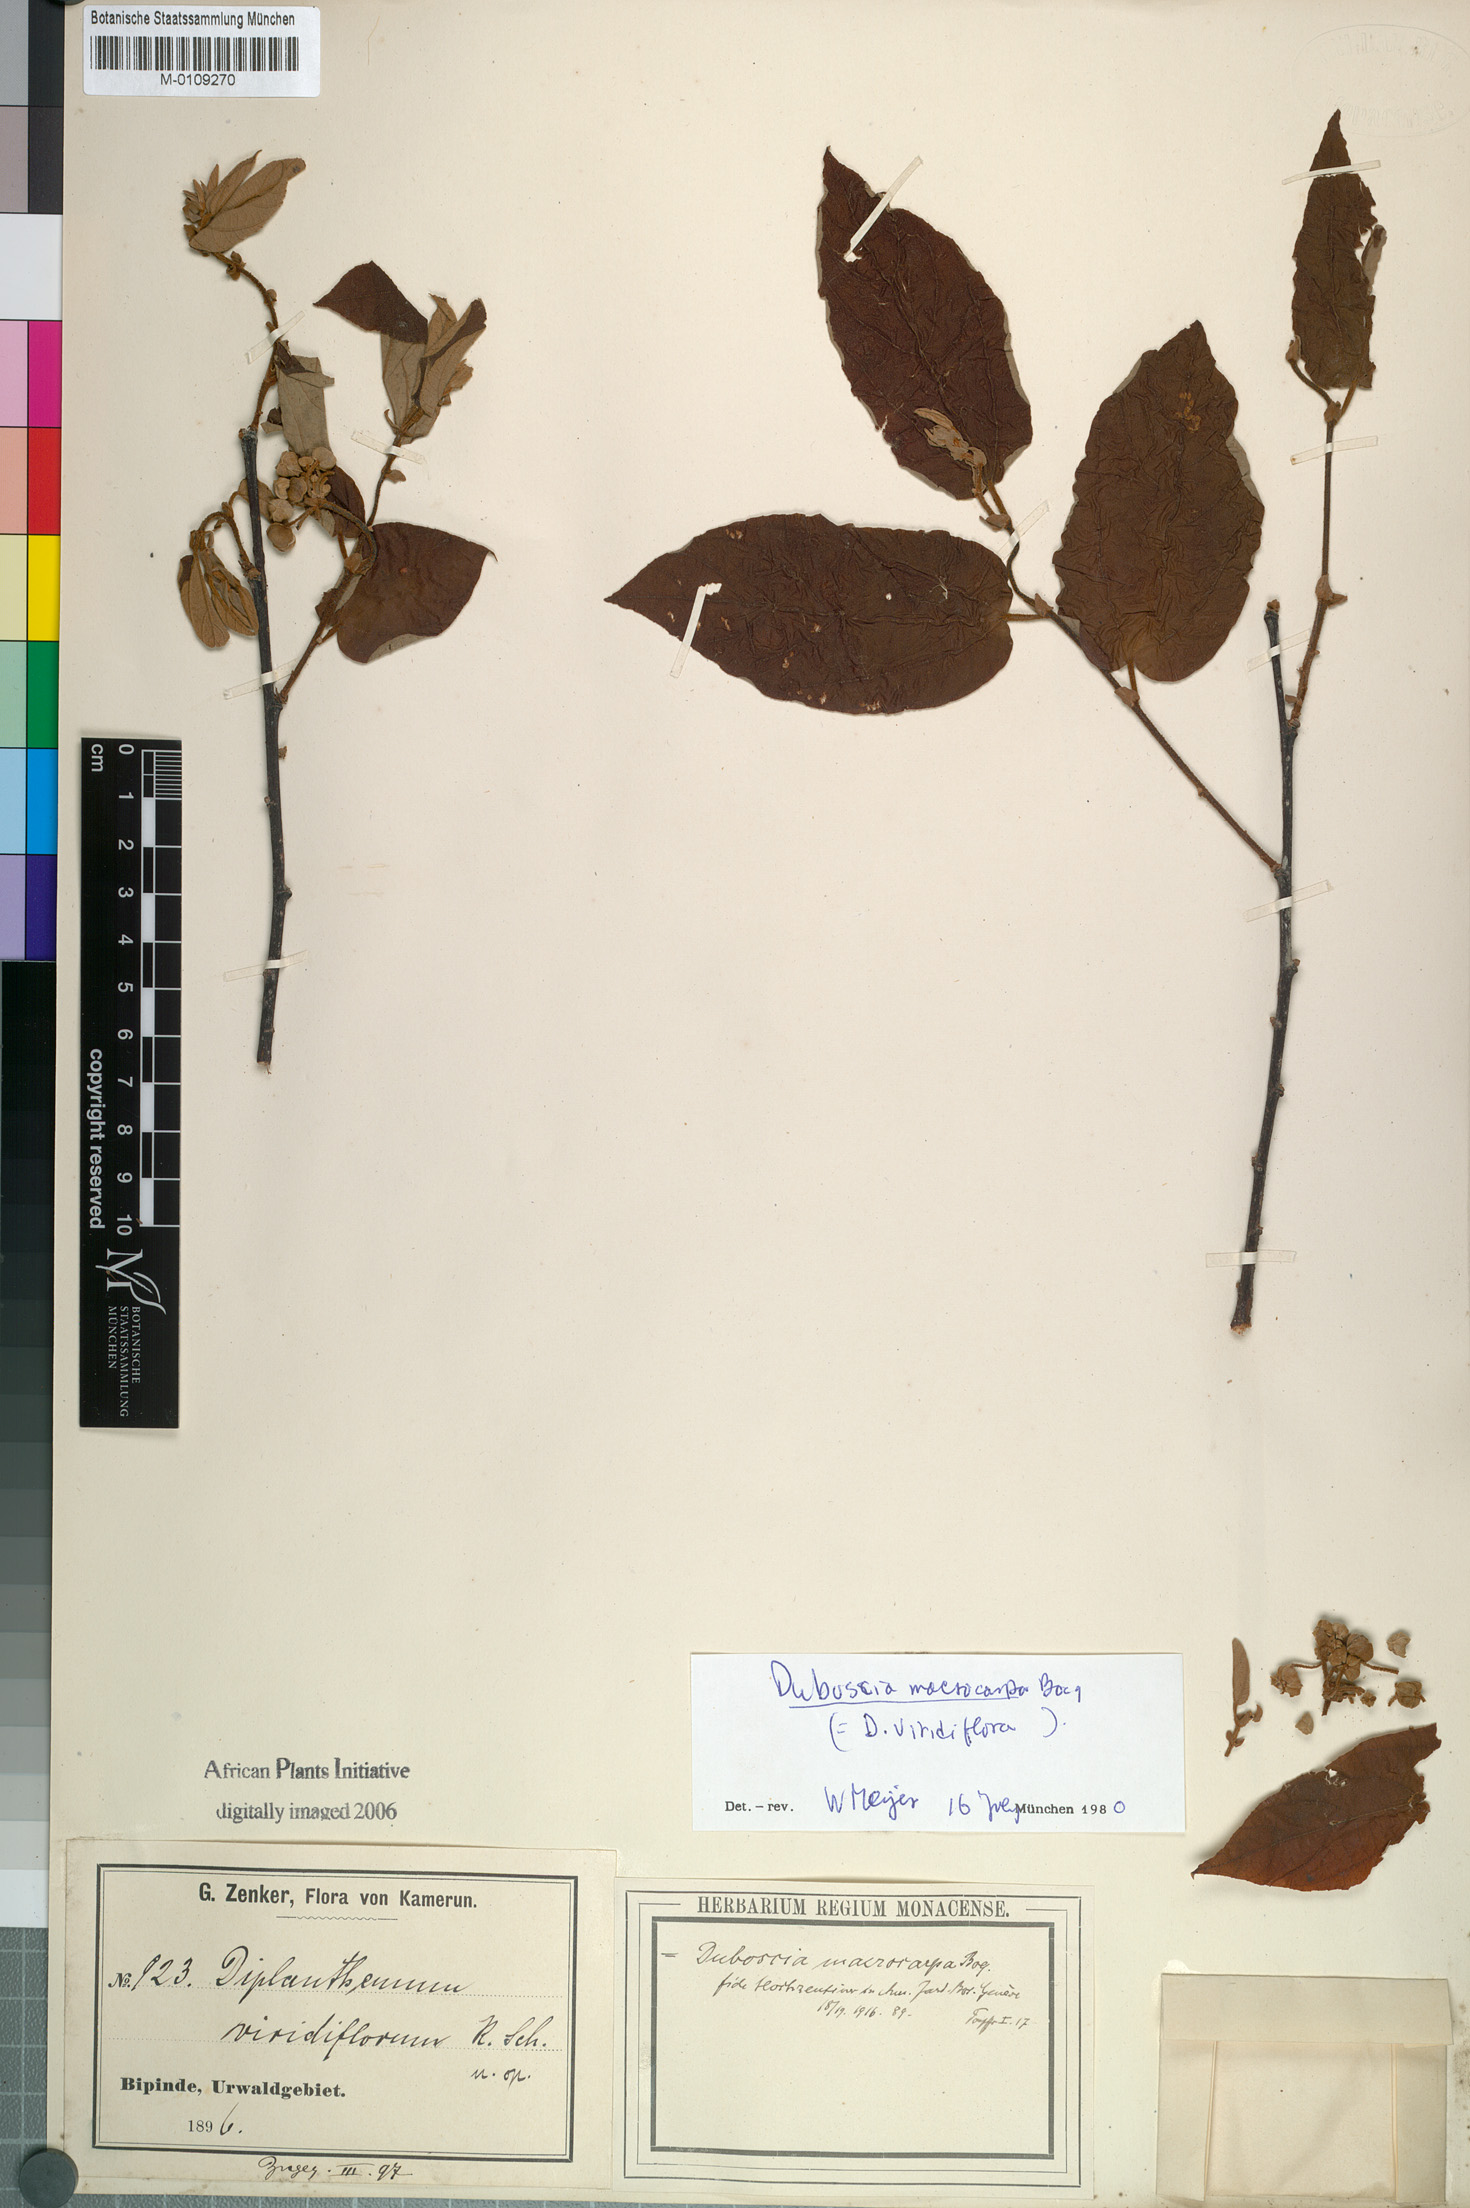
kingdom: Plantae
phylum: Tracheophyta
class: Magnoliopsida
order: Malvales
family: Malvaceae
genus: Duboscia
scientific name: Duboscia macrocarpa
